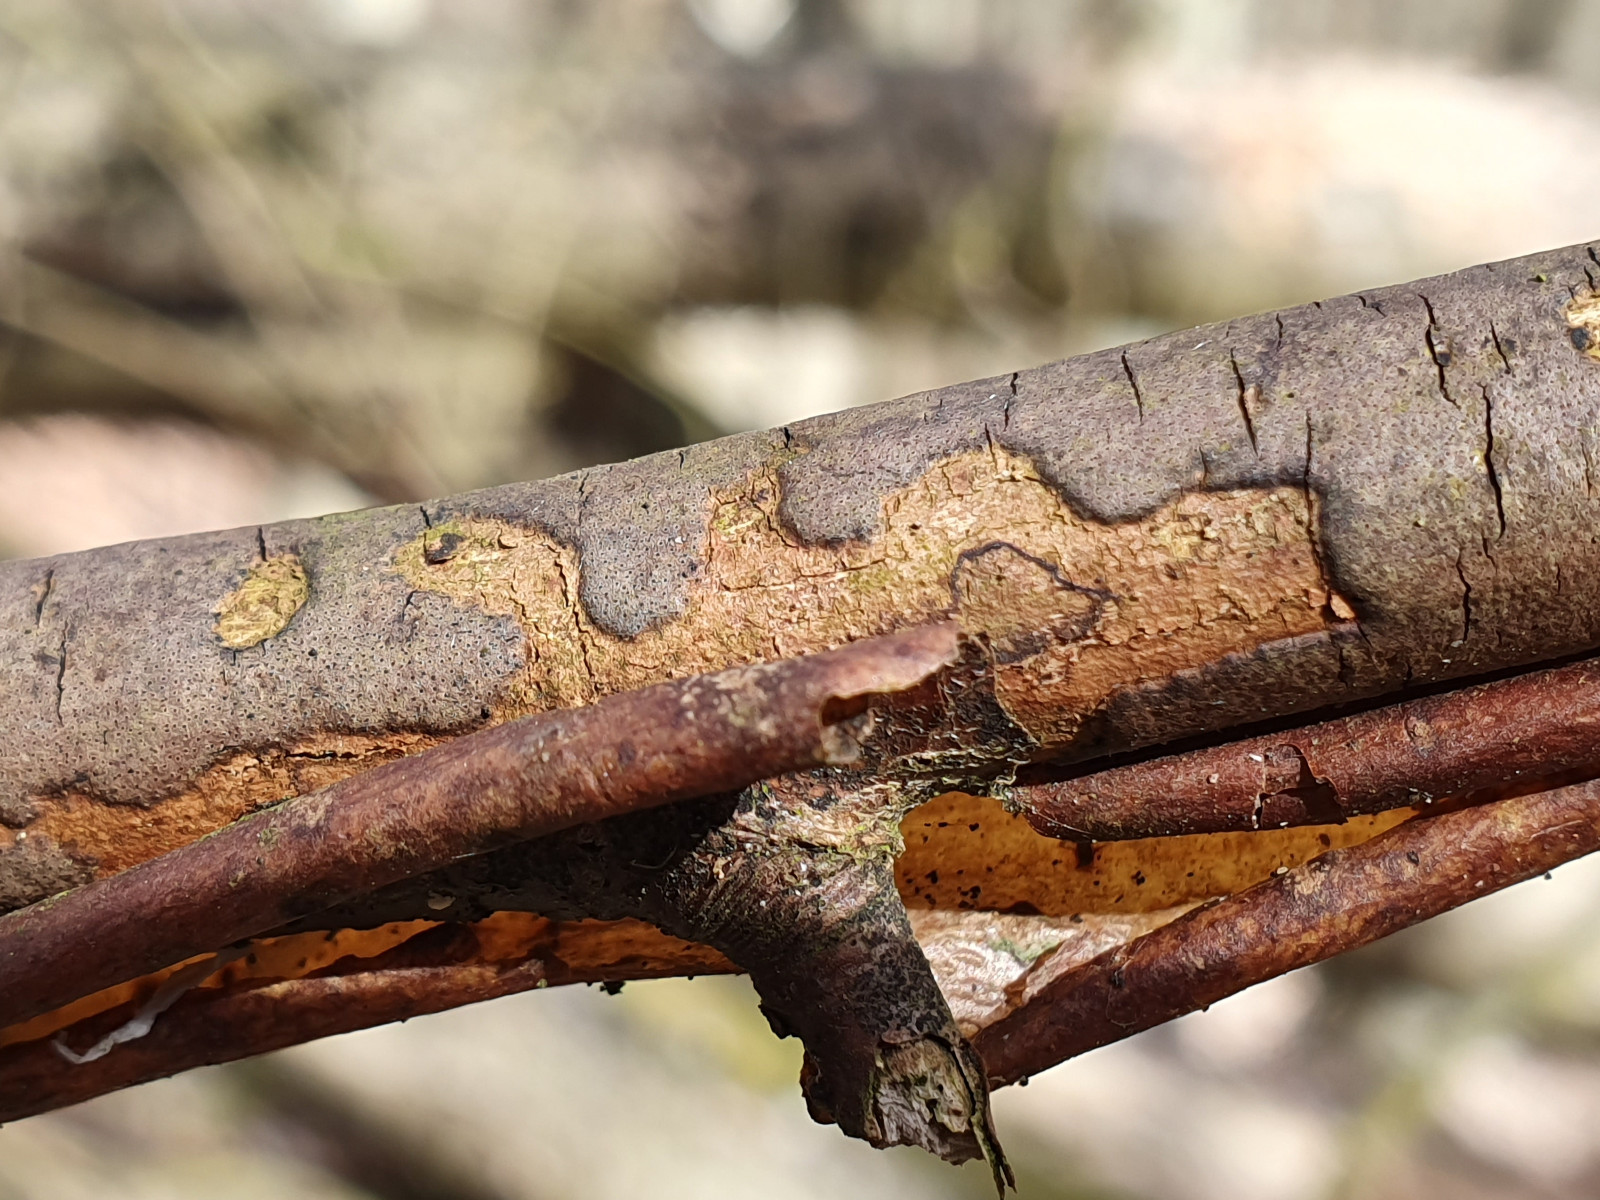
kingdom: Fungi
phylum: Ascomycota
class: Sordariomycetes
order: Xylariales
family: Diatrypaceae
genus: Diatrype
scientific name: Diatrype decorticata
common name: barksprænger-kulskorpe
